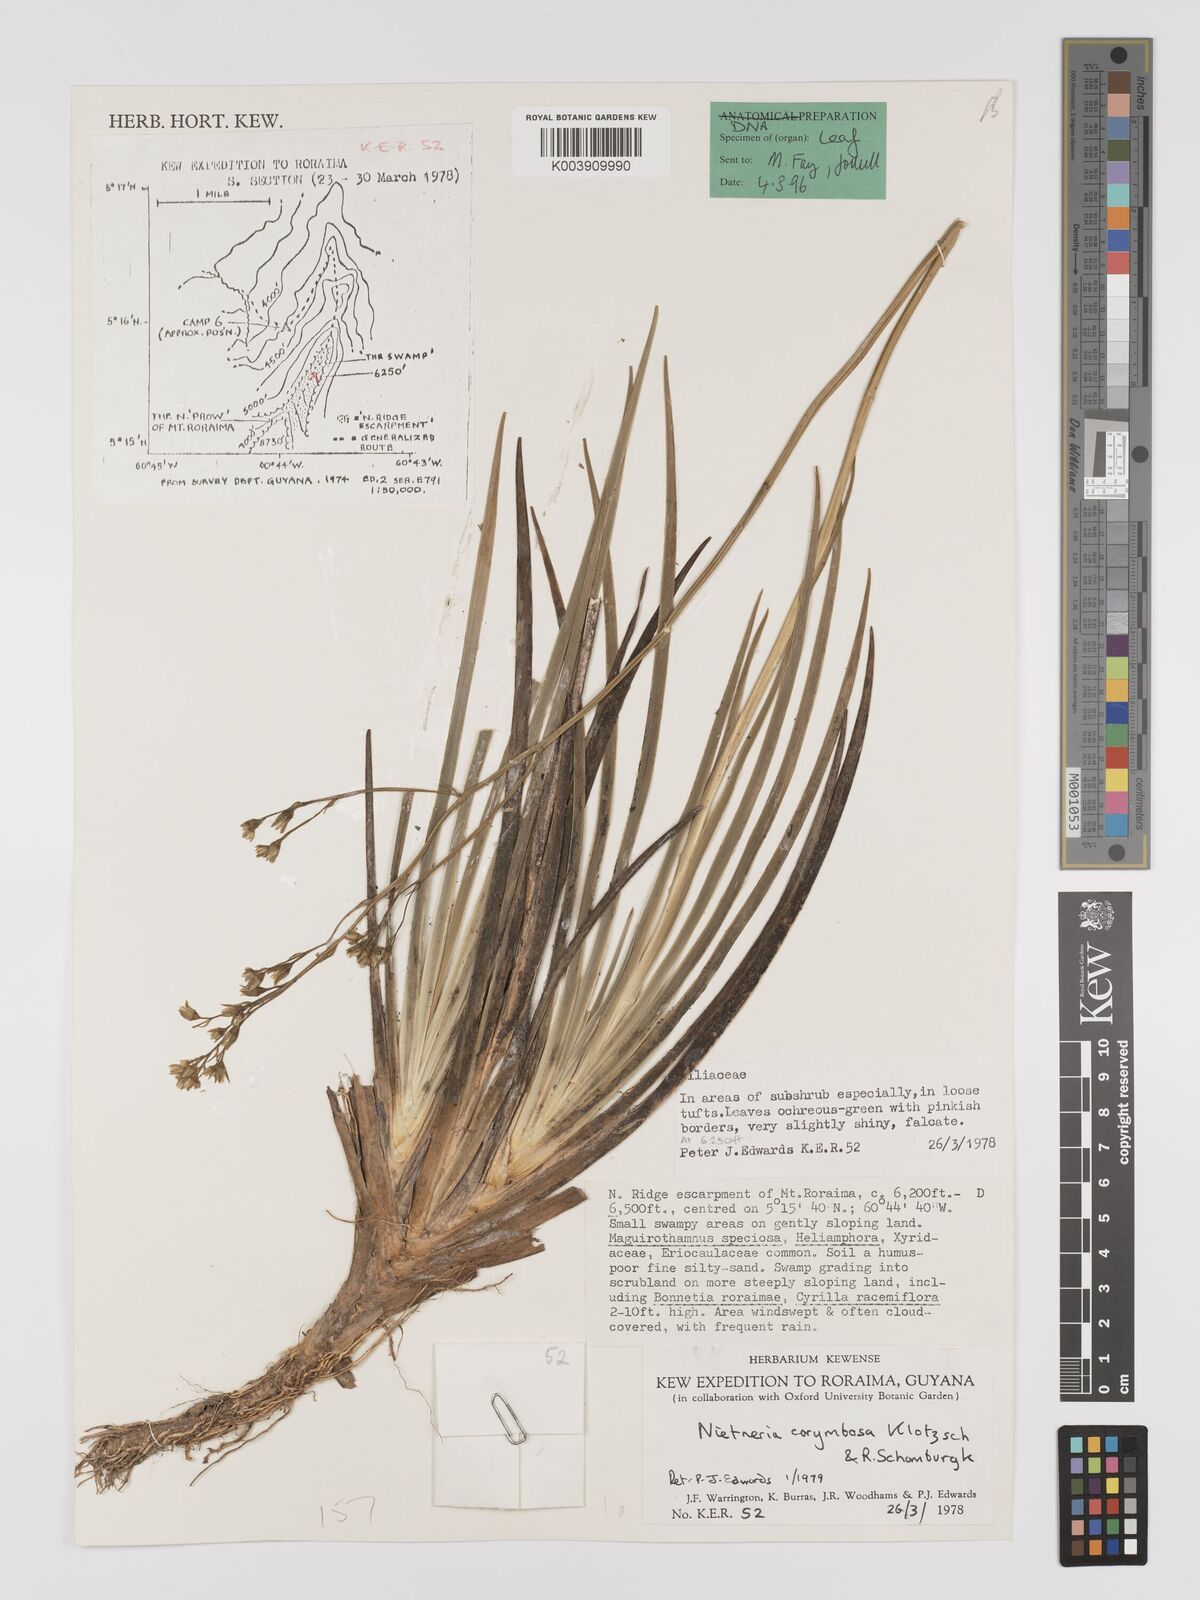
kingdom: Plantae
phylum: Tracheophyta
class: Liliopsida
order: Dioscoreales
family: Nartheciaceae
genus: Nietneria
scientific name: Nietneria corymbosa
